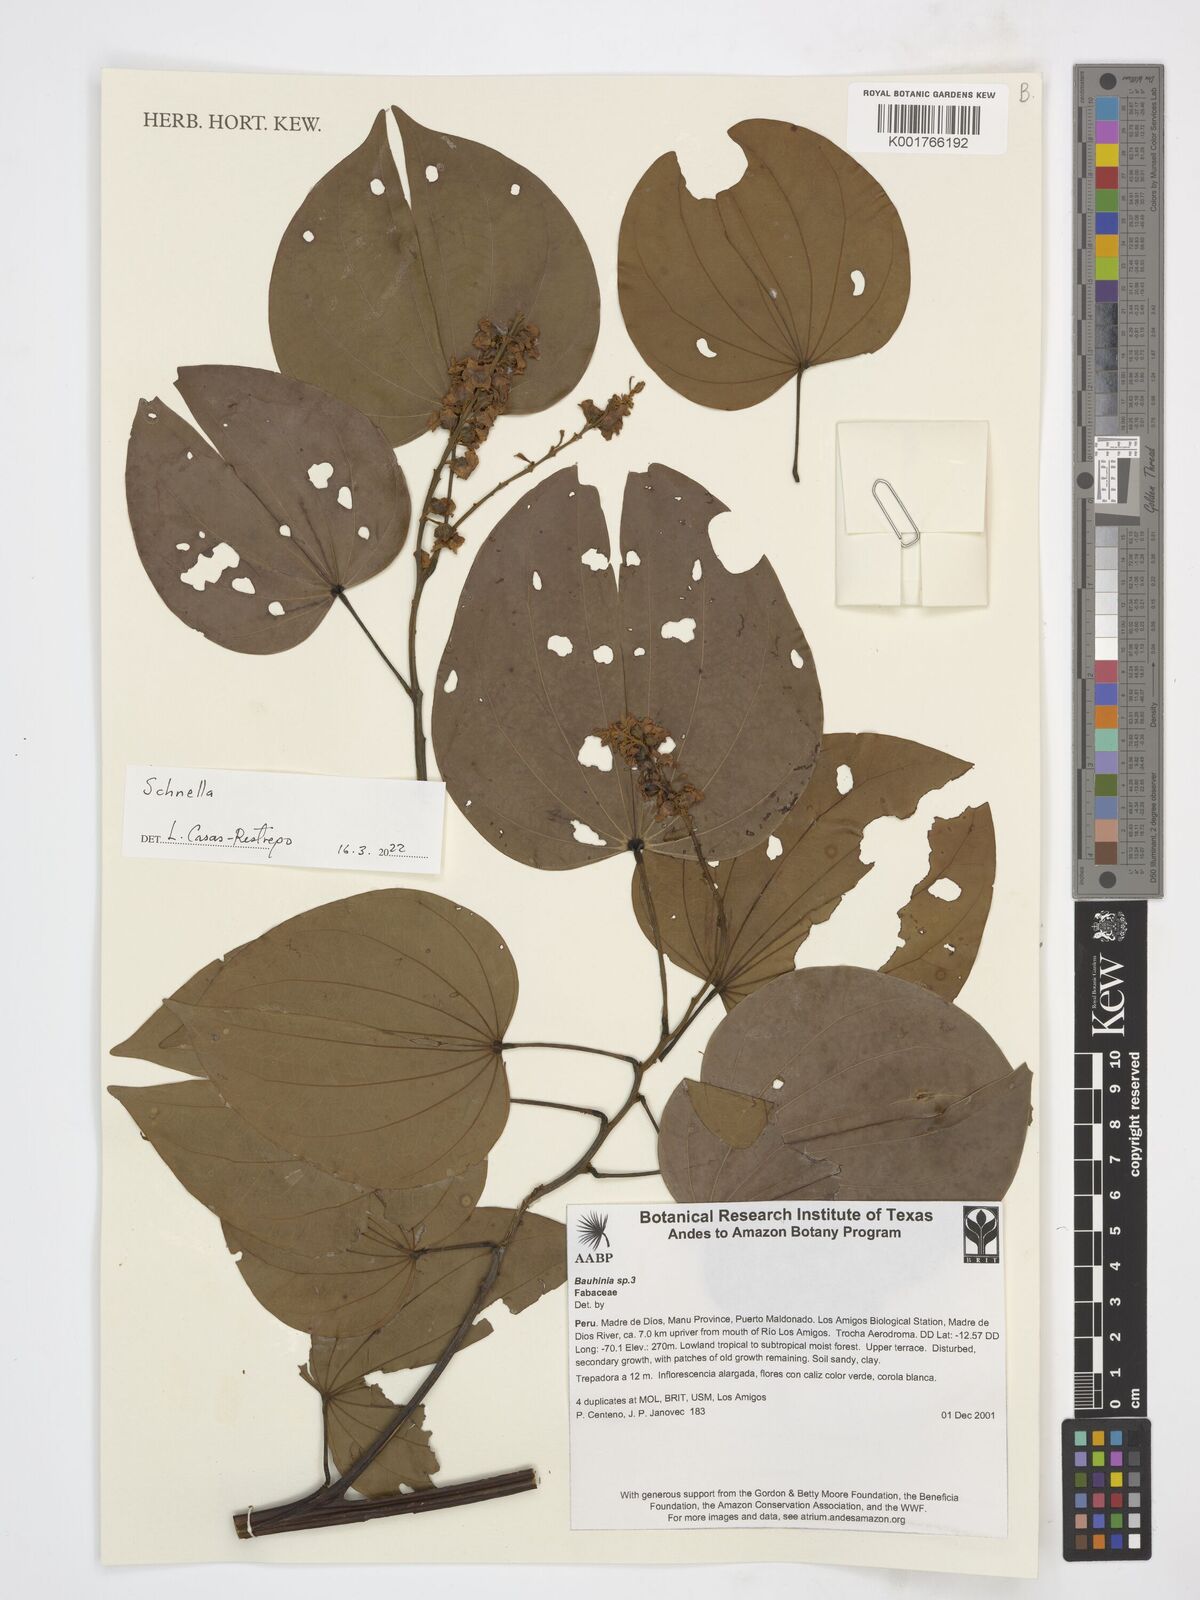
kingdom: Plantae
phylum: Tracheophyta
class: Magnoliopsida
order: Fabales
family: Fabaceae
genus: Schnella
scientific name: Schnella
